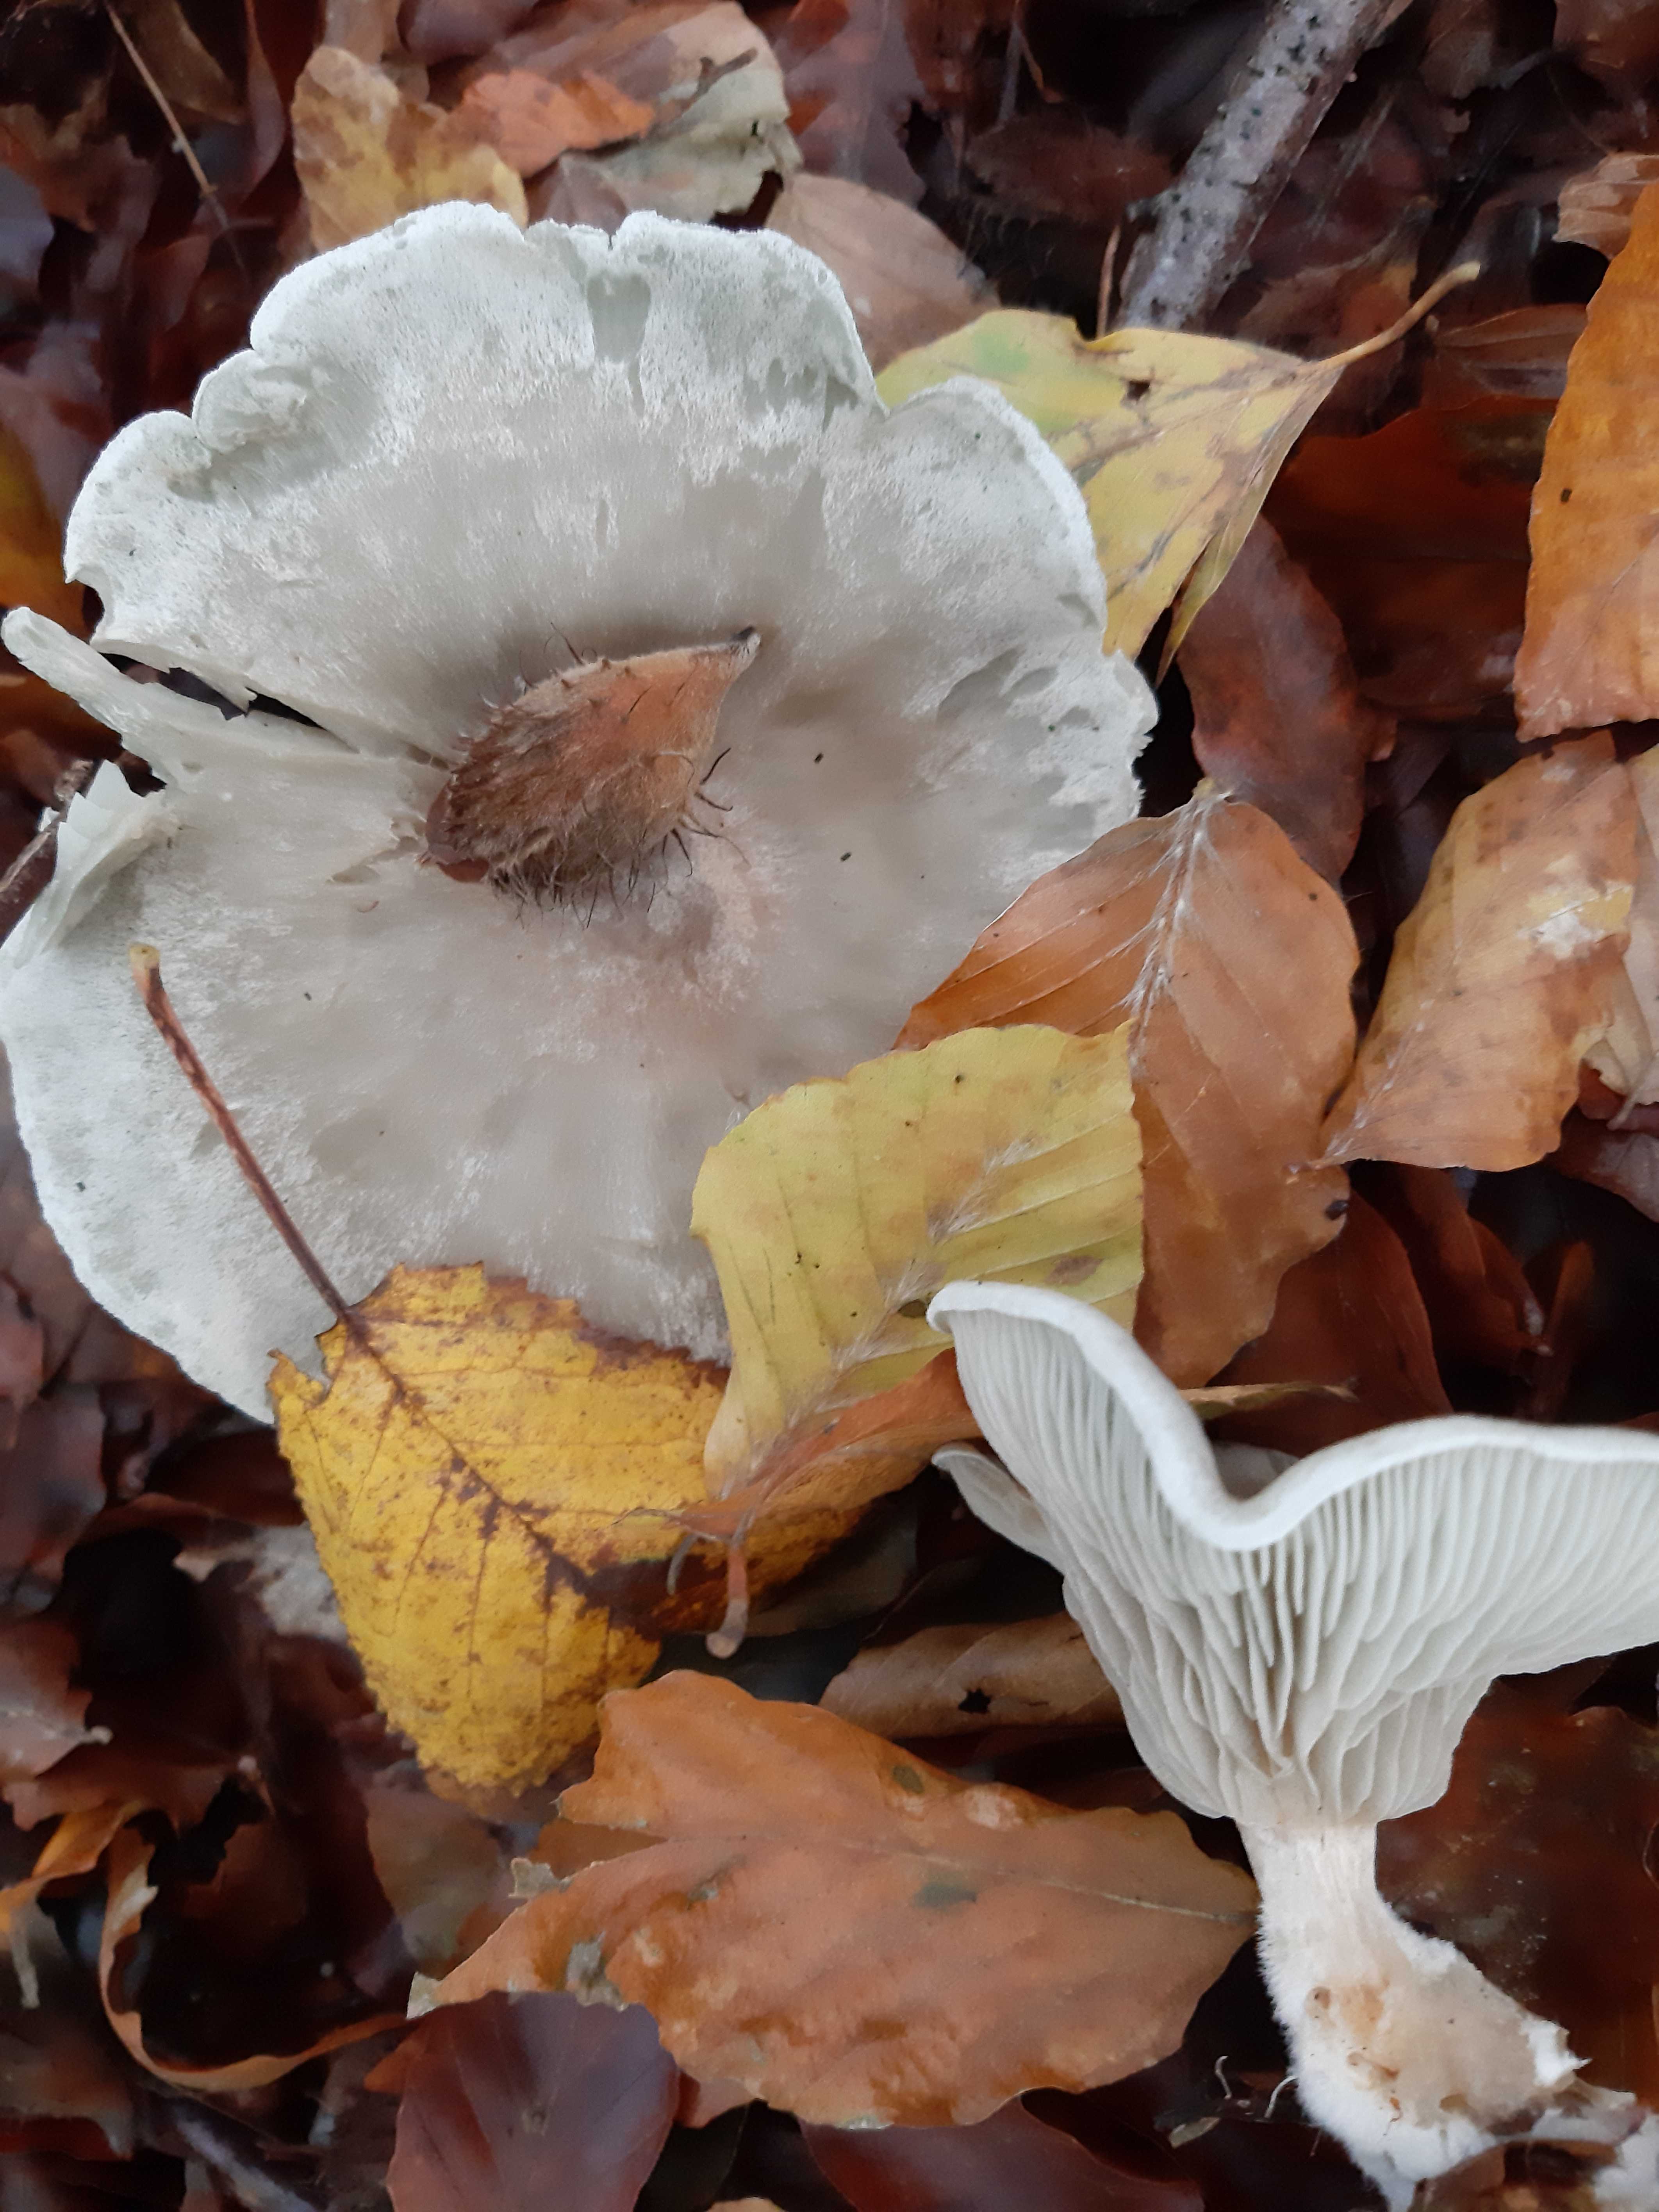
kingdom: Fungi
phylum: Basidiomycota
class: Agaricomycetes
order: Agaricales
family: Tricholomataceae
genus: Clitocybe
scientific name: Clitocybe odora
